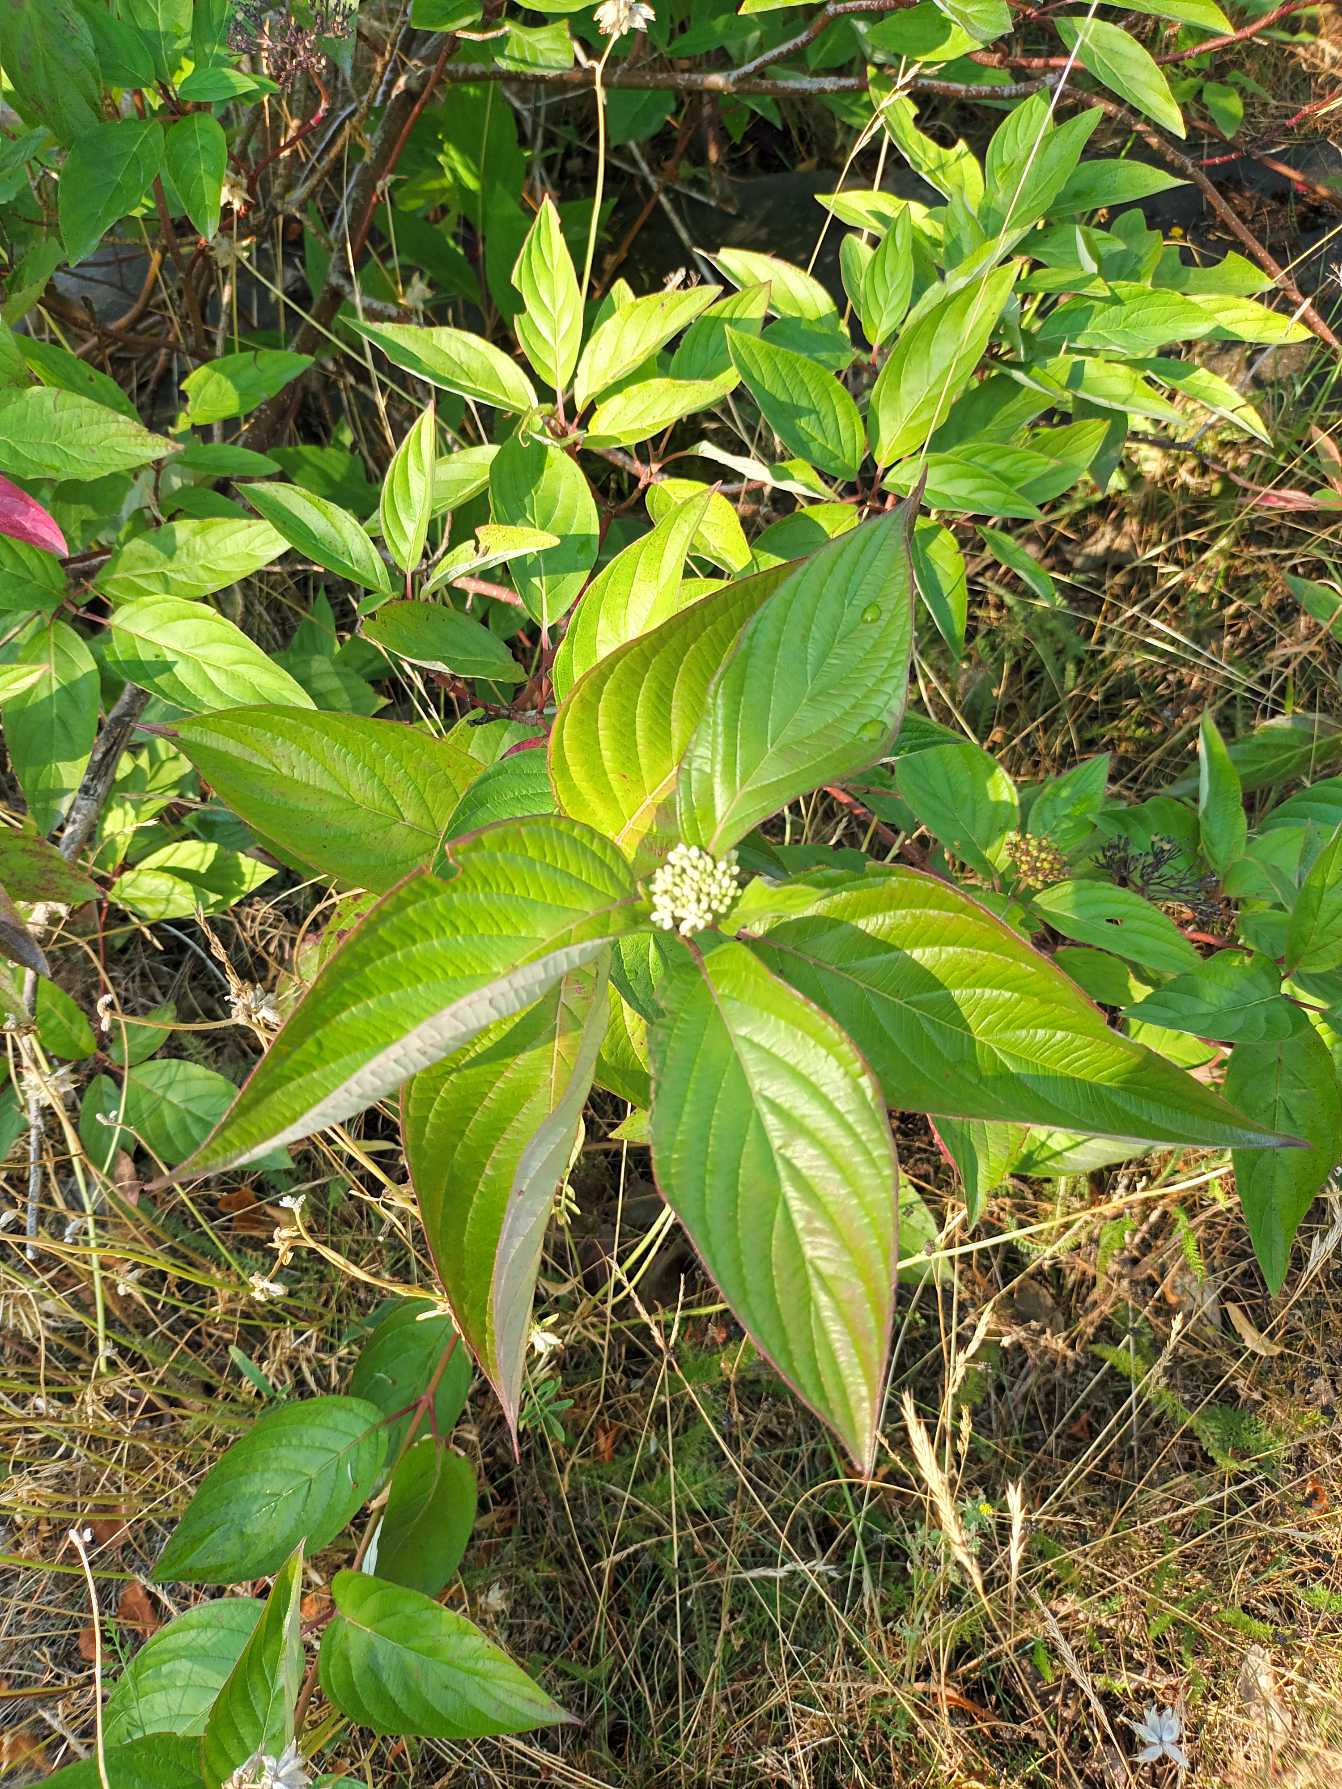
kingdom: Plantae
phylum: Tracheophyta
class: Magnoliopsida
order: Cornales
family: Cornaceae
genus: Cornus
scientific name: Cornus sericea
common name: Krybende kornel
